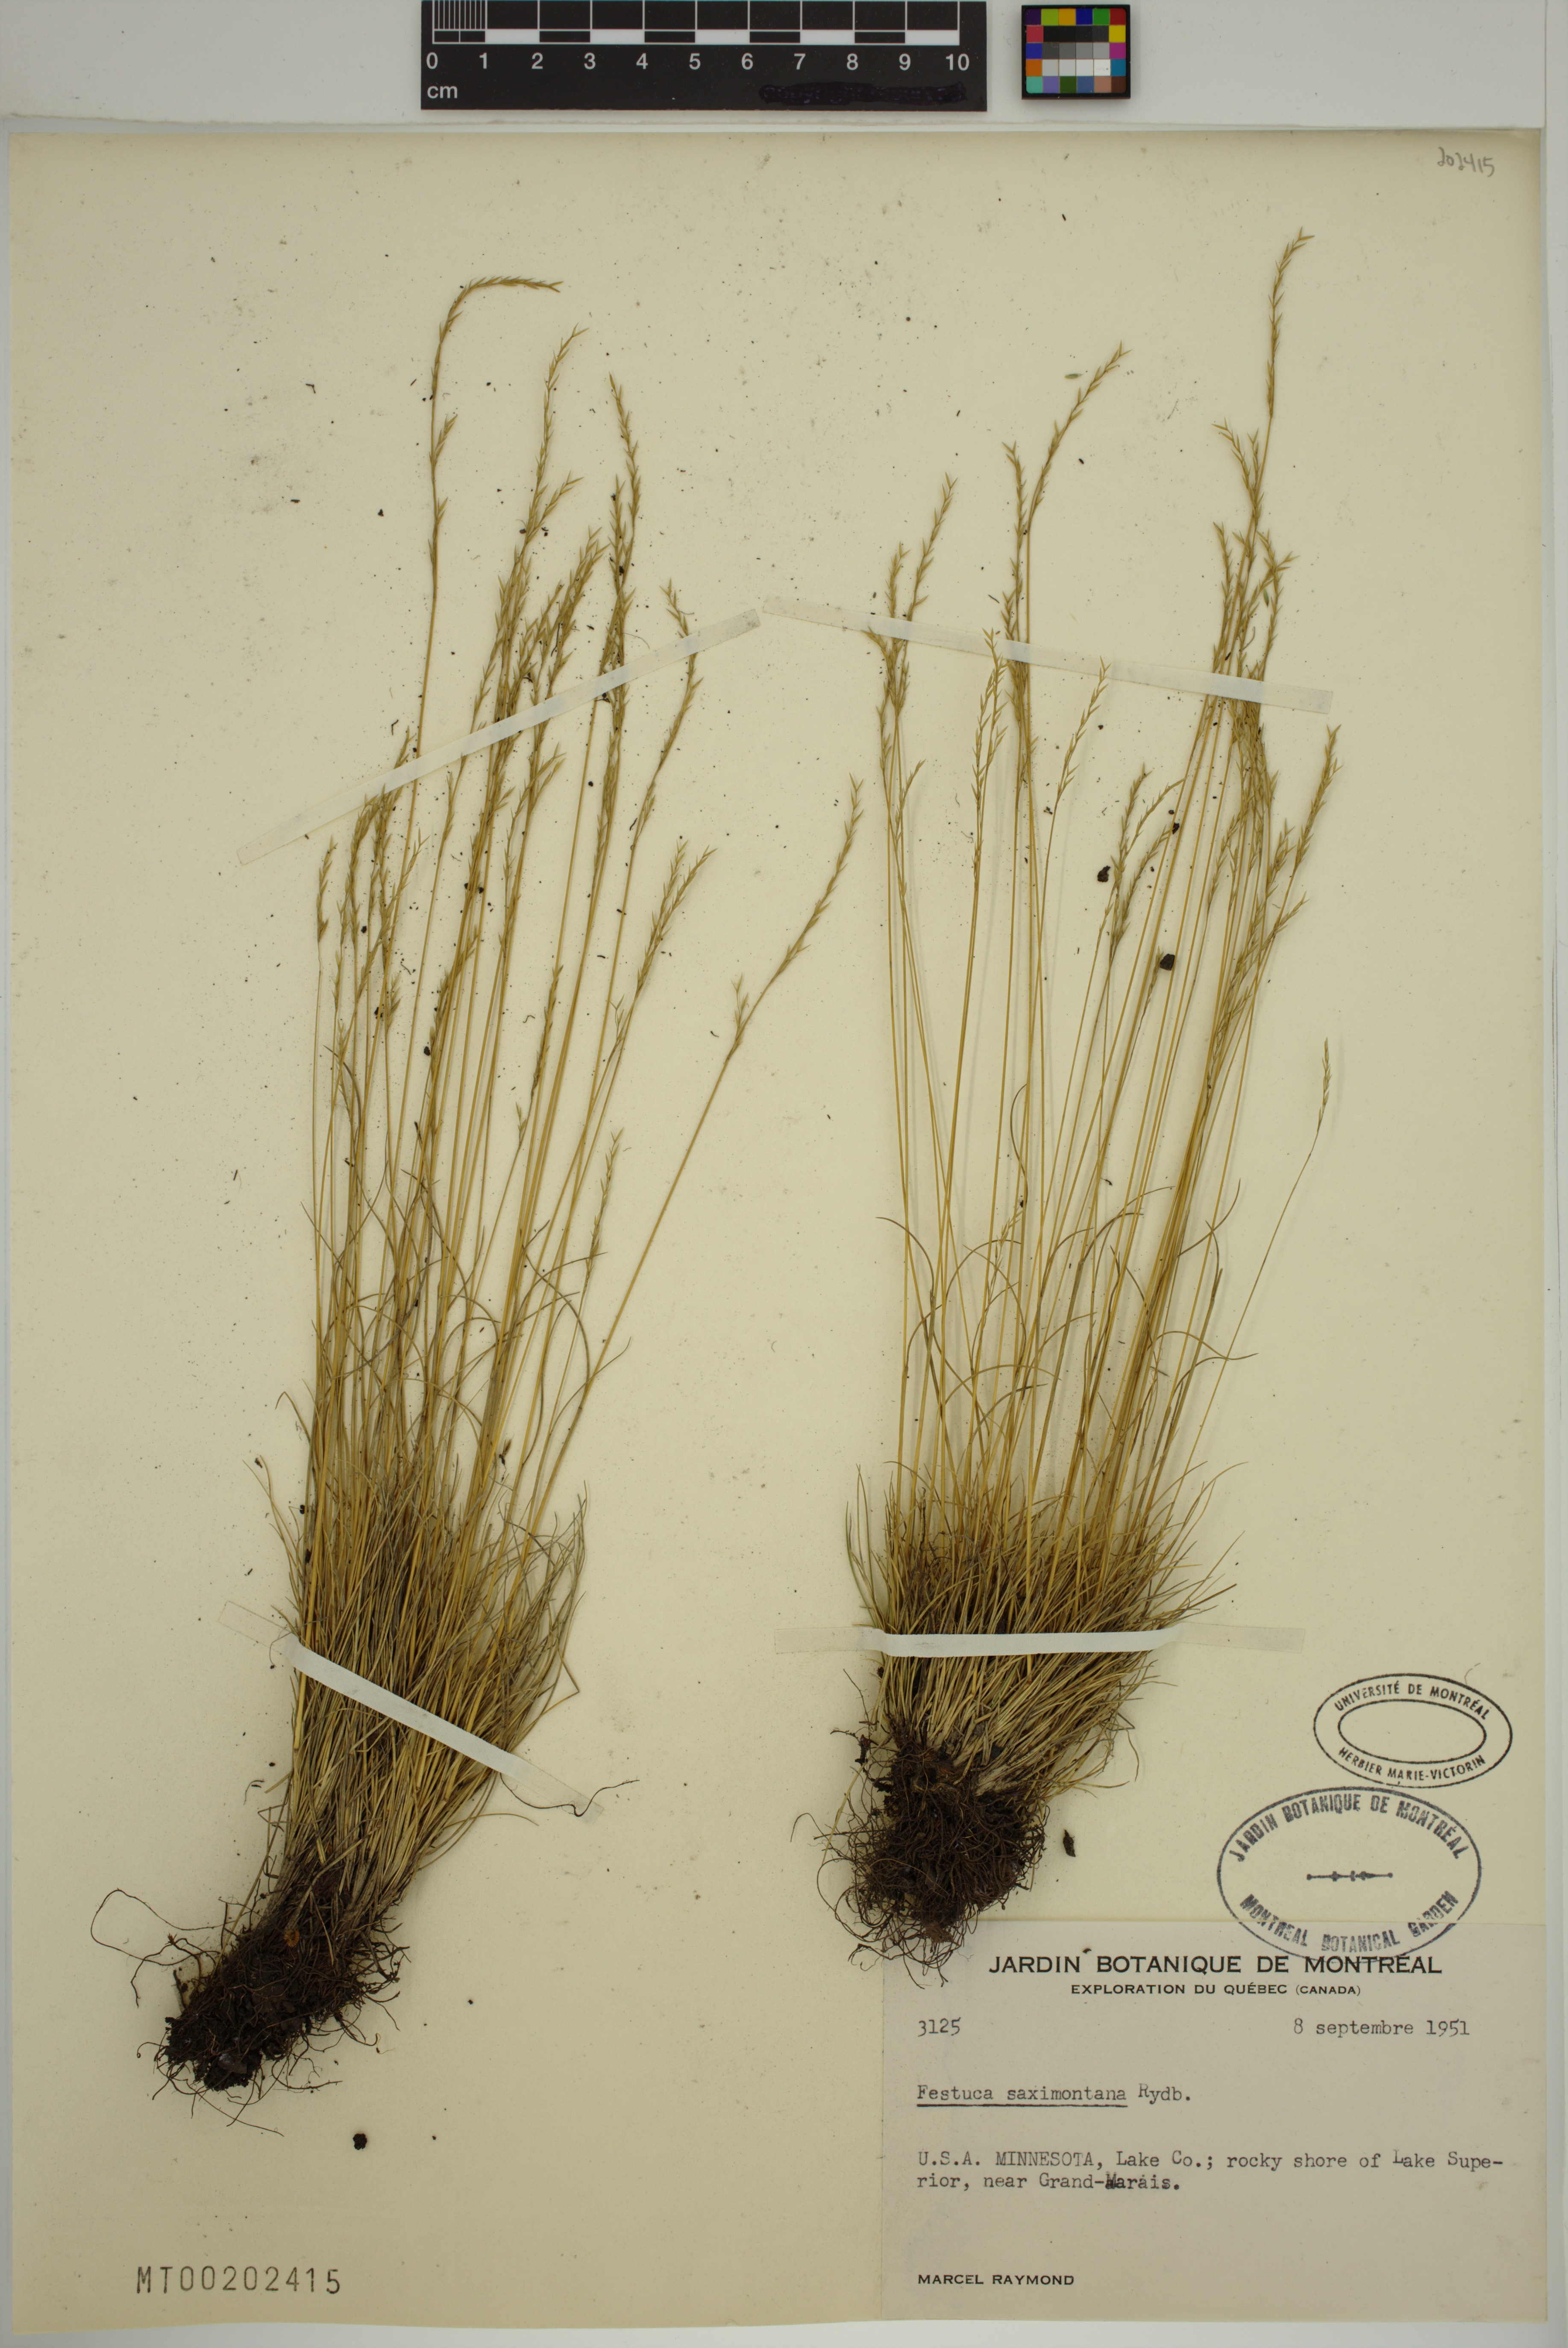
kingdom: Plantae
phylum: Tracheophyta
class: Liliopsida
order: Poales
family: Poaceae
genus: Festuca
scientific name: Festuca saximontana
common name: Mountain fescue
